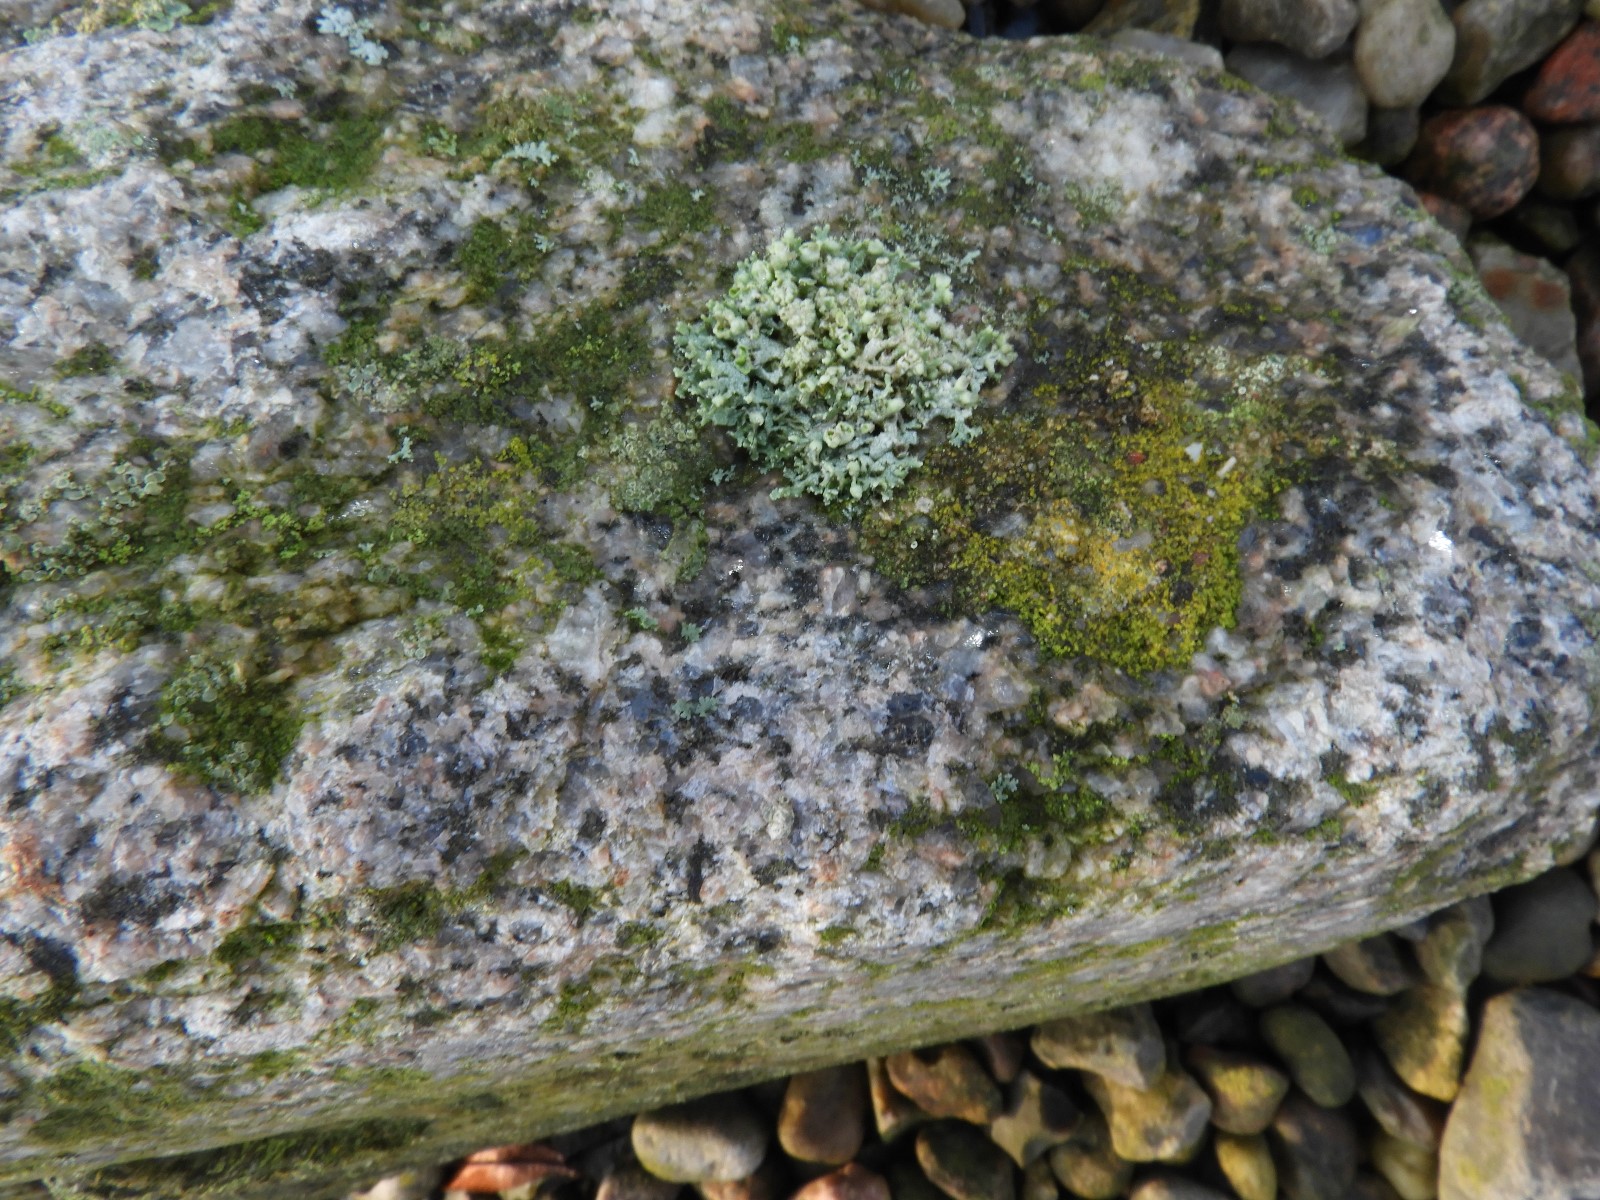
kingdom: Fungi
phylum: Ascomycota
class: Lecanoromycetes
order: Caliciales
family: Physciaceae
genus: Physcia
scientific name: Physcia adscendens
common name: hætte-rosetlav
